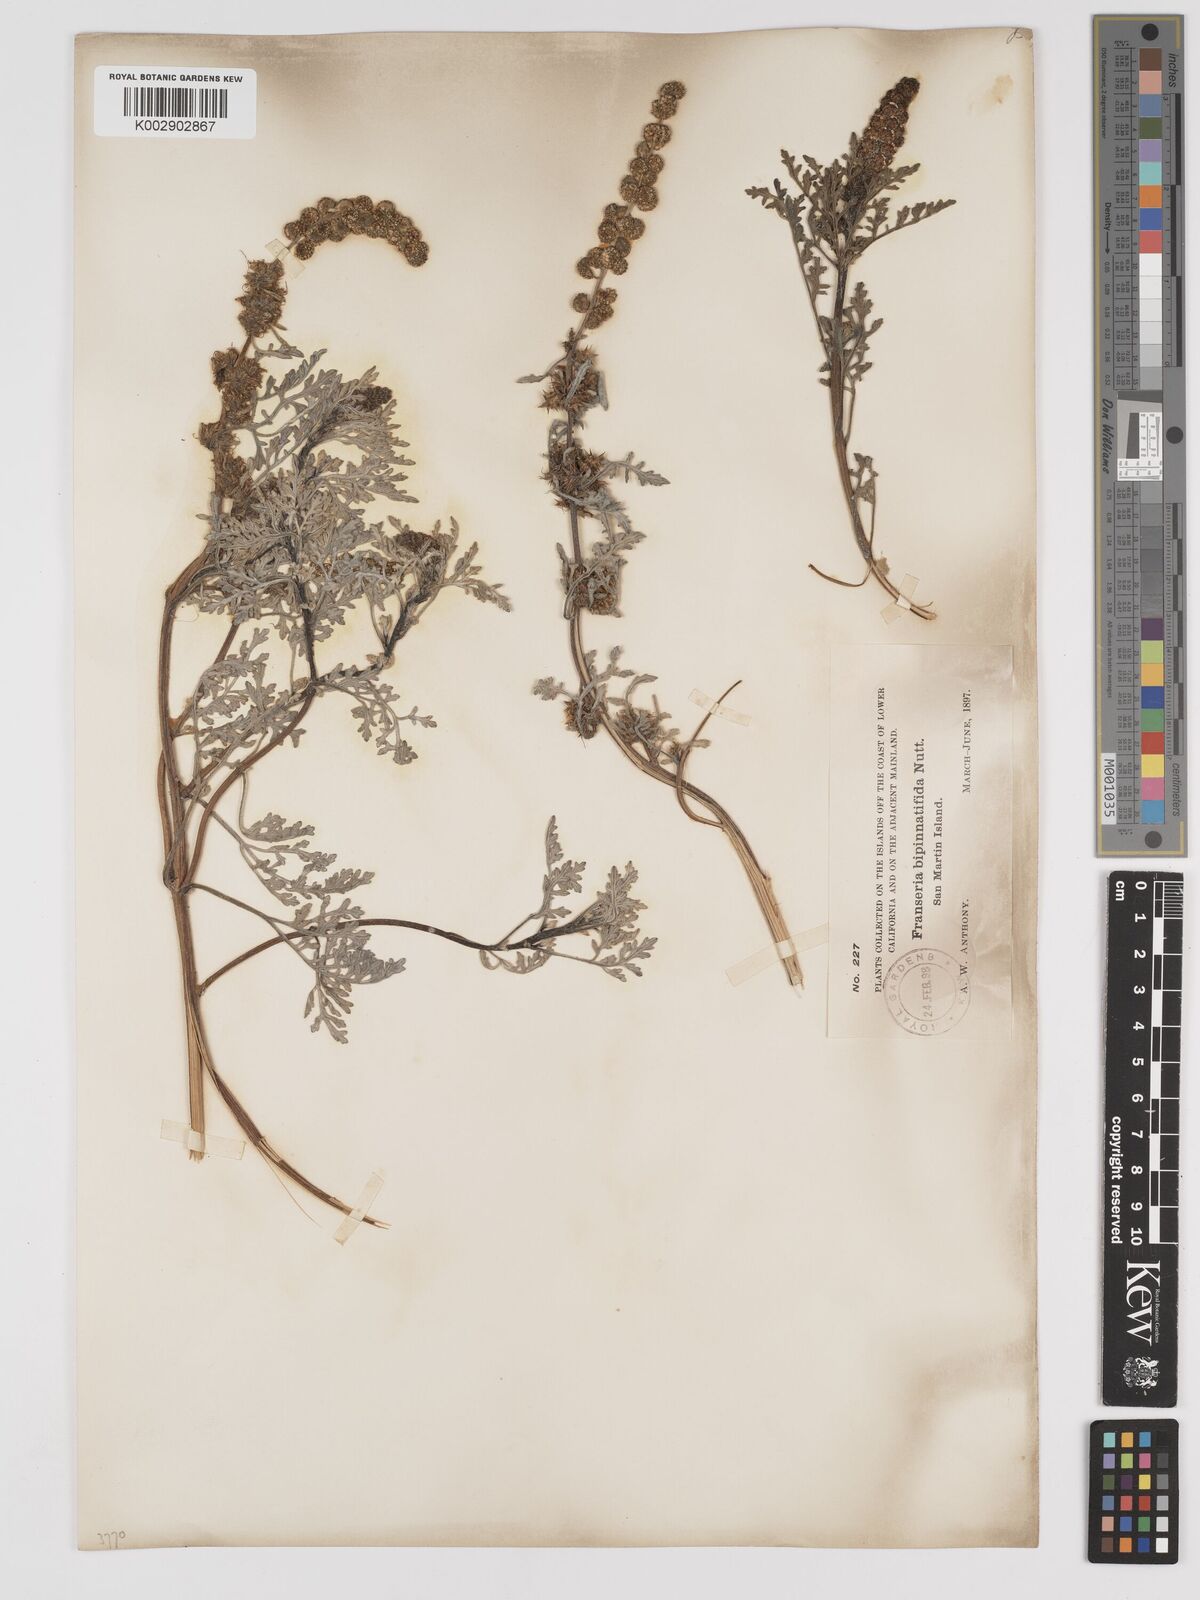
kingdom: Plantae
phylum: Tracheophyta
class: Magnoliopsida
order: Asterales
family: Asteraceae
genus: Ambrosia
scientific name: Ambrosia chamissonis
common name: Beachbur
